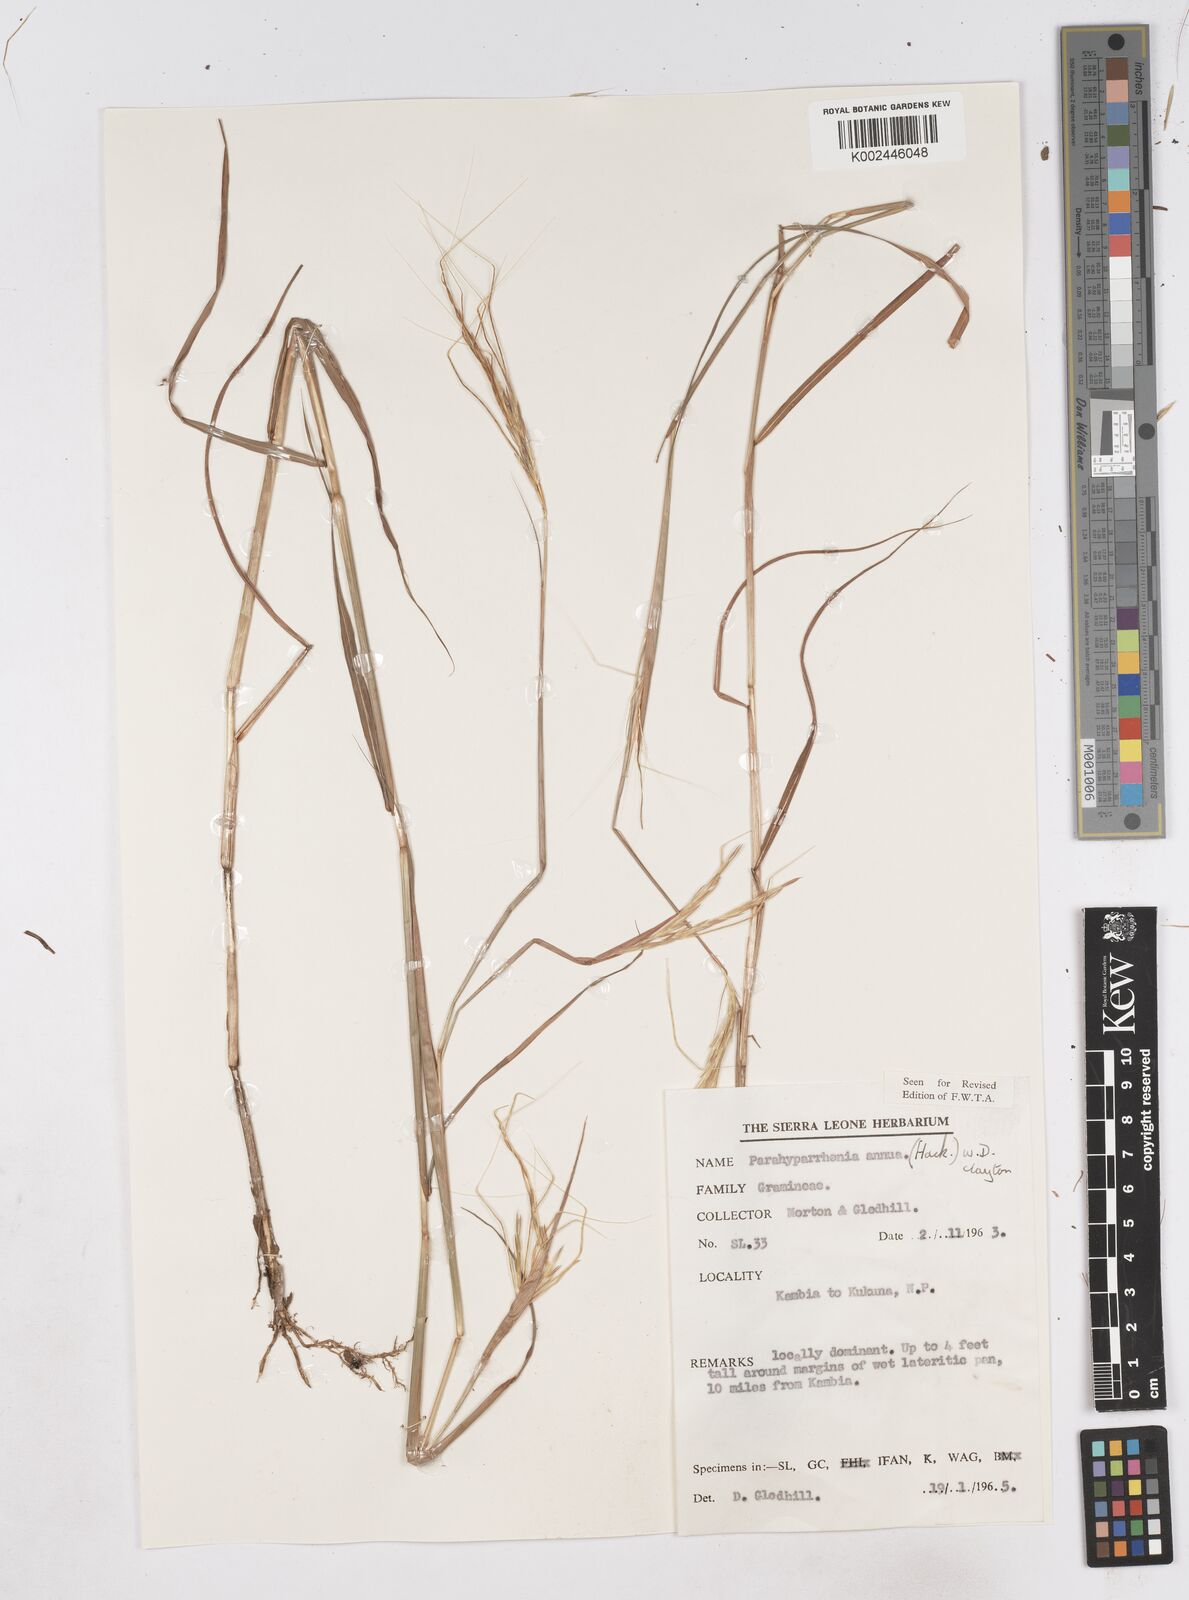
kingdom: Plantae
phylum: Tracheophyta
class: Liliopsida
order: Poales
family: Poaceae
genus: Parahyparrhenia
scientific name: Parahyparrhenia annua
